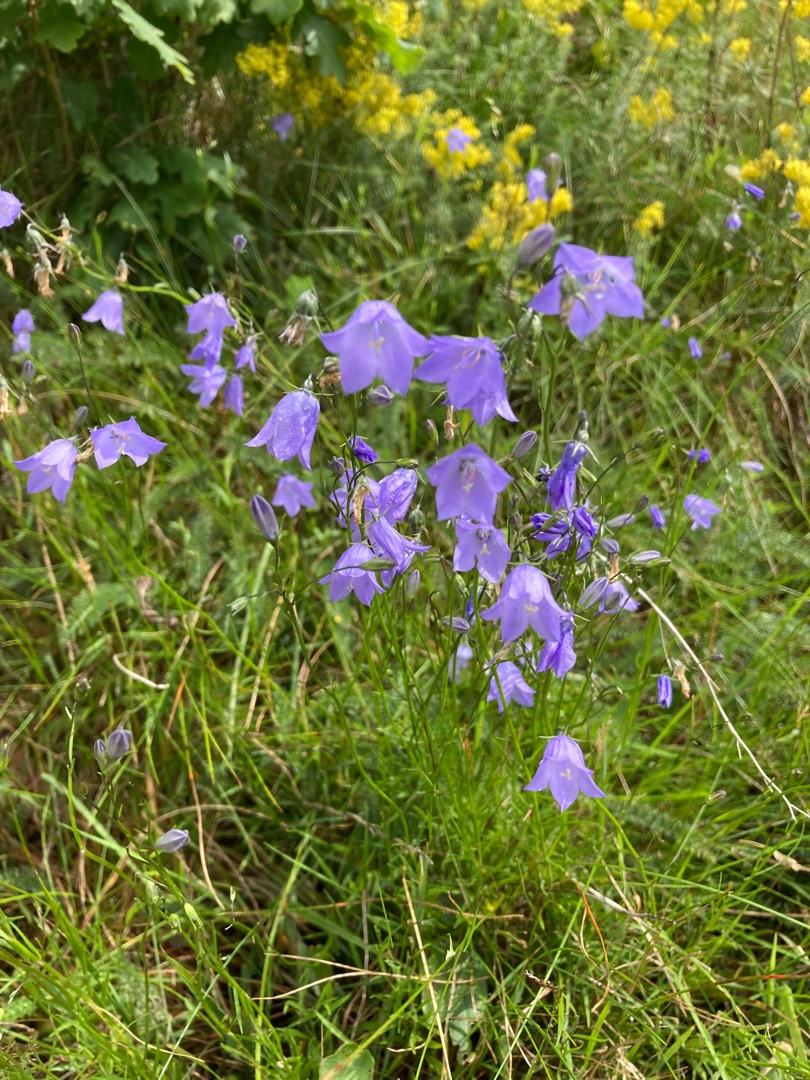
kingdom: Plantae
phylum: Tracheophyta
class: Magnoliopsida
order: Asterales
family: Campanulaceae
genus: Campanula
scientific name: Campanula rotundifolia
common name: Liden klokke
